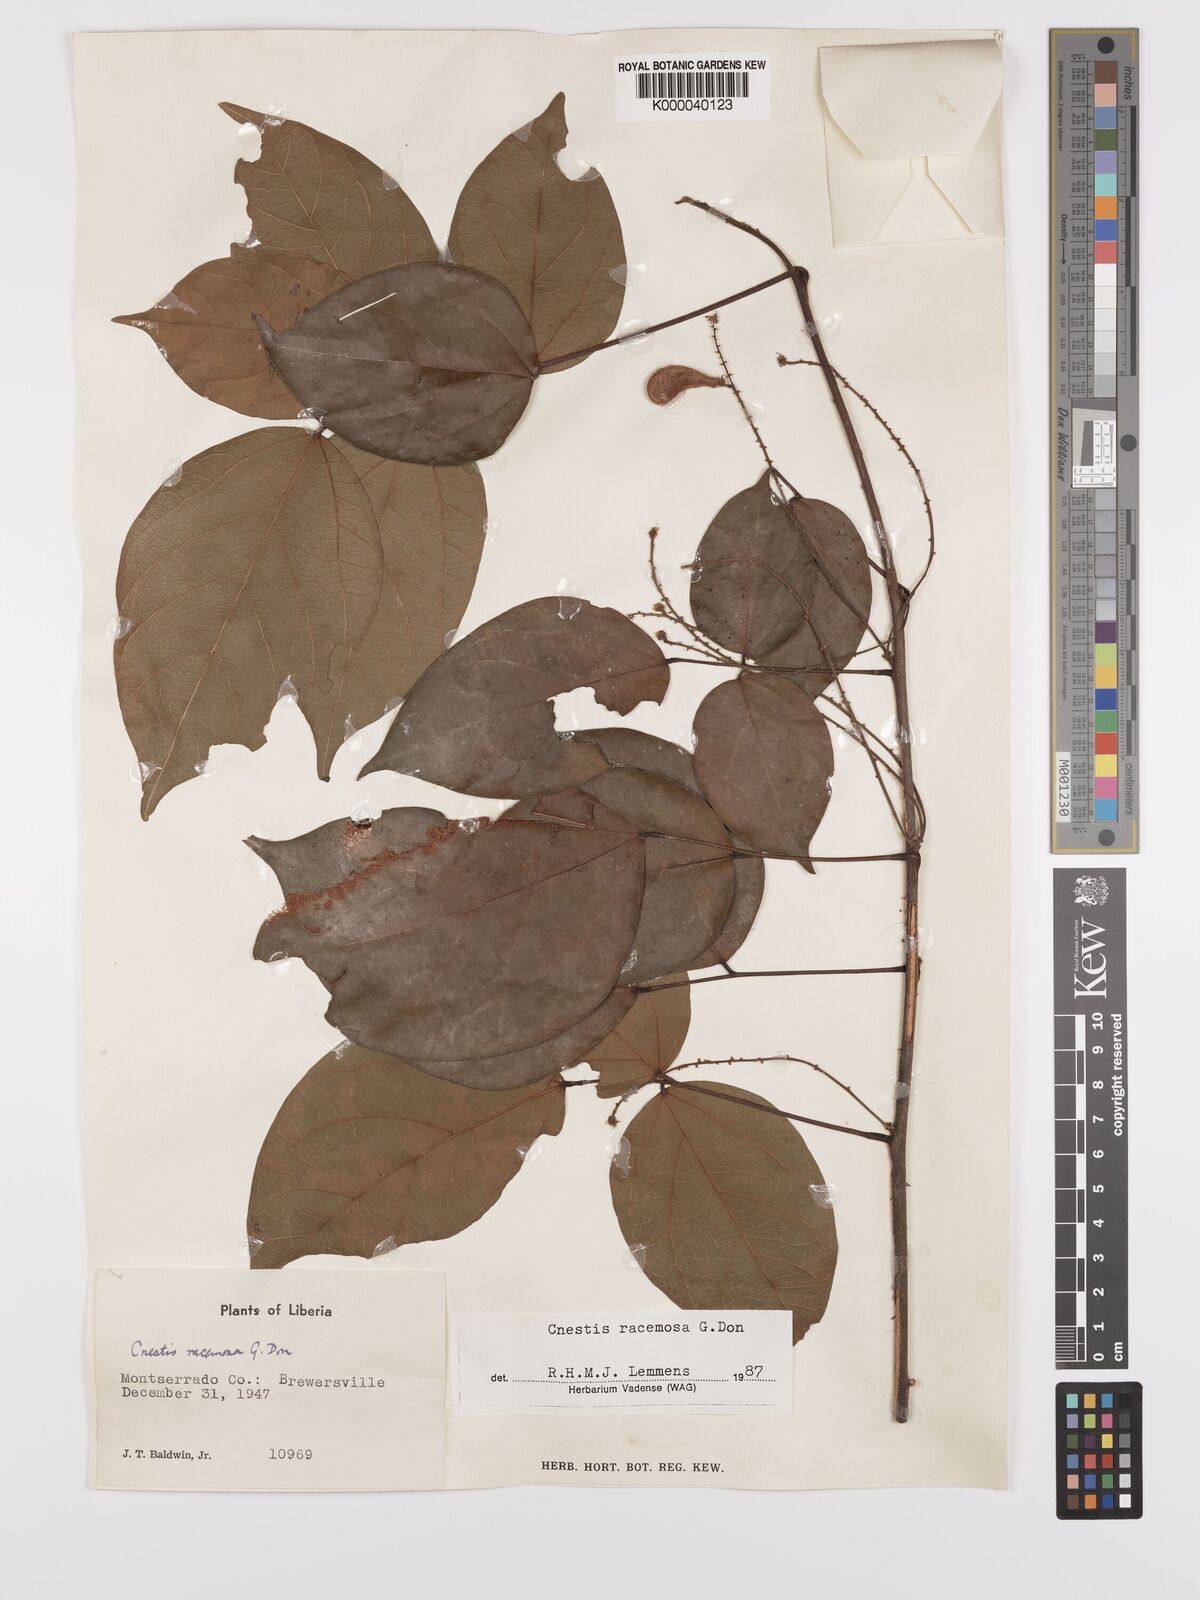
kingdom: Plantae
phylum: Tracheophyta
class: Magnoliopsida
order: Oxalidales
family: Connaraceae
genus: Cnestis
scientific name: Cnestis racemosa
